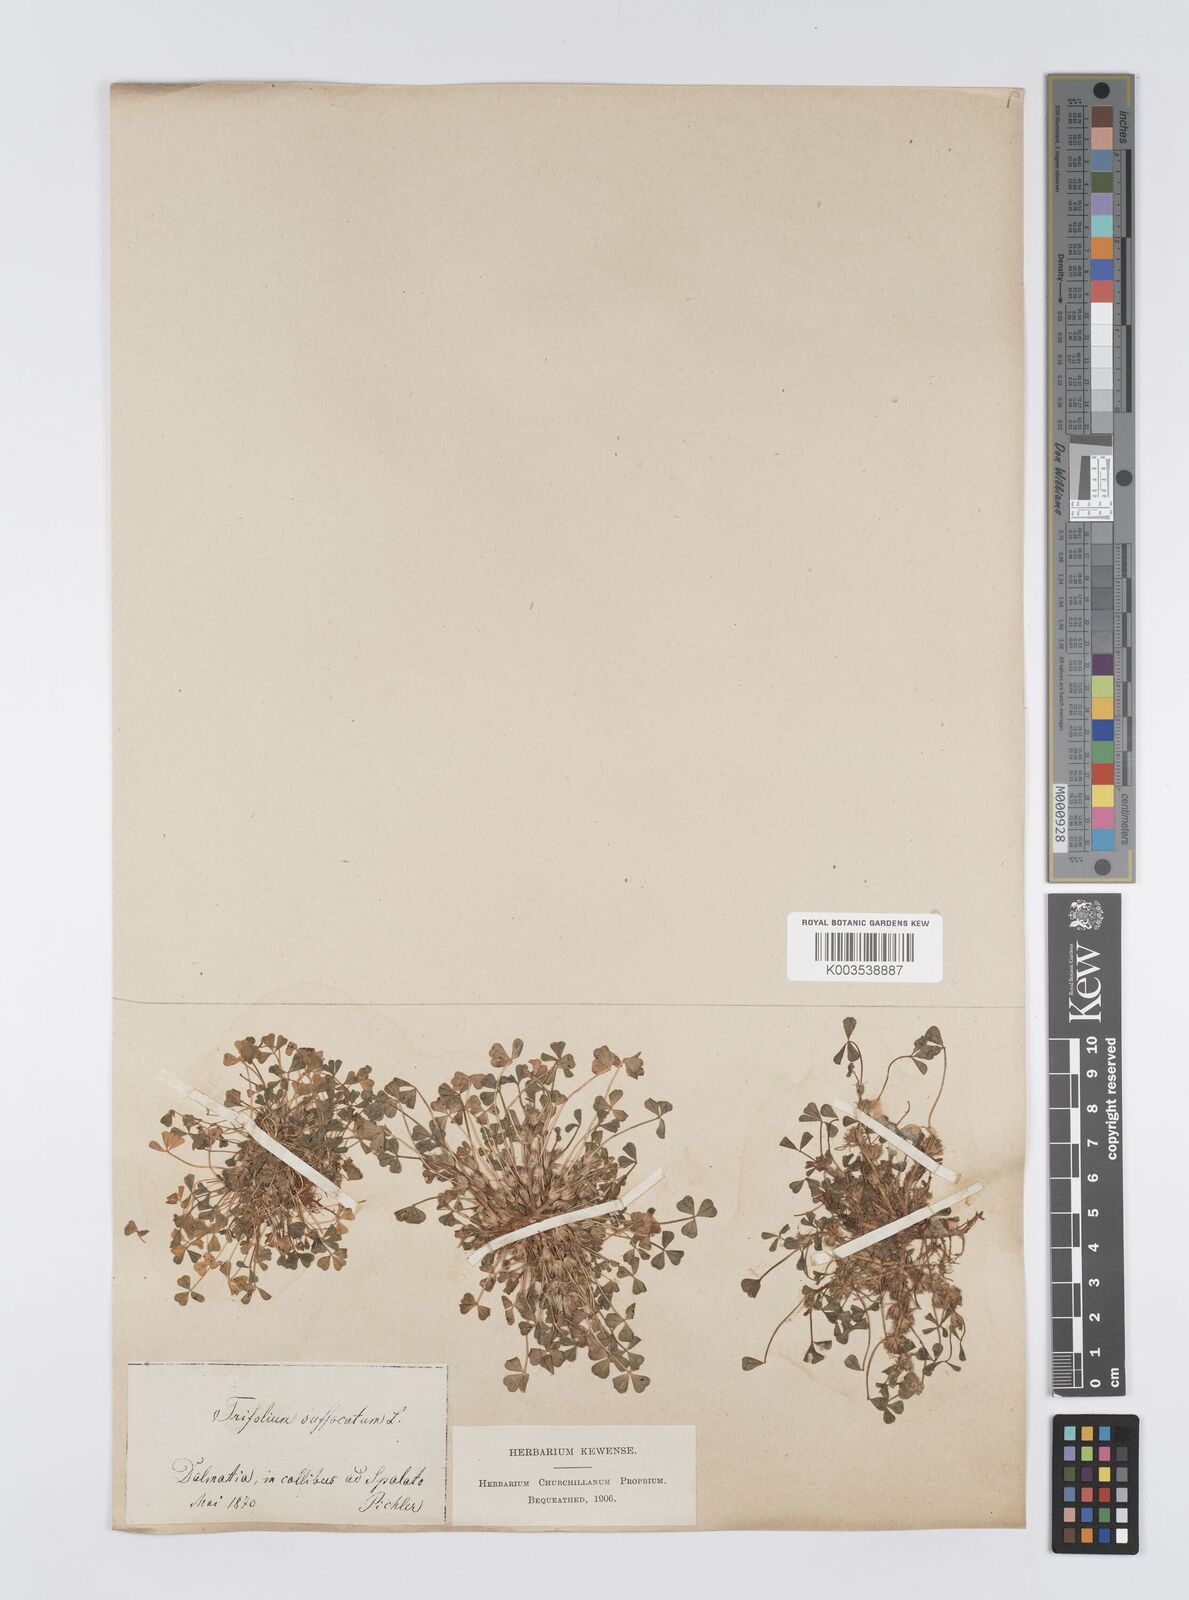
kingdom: Plantae
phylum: Tracheophyta
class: Magnoliopsida
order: Fabales
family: Fabaceae
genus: Trifolium
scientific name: Trifolium suffocatum
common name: Suffocated clover
